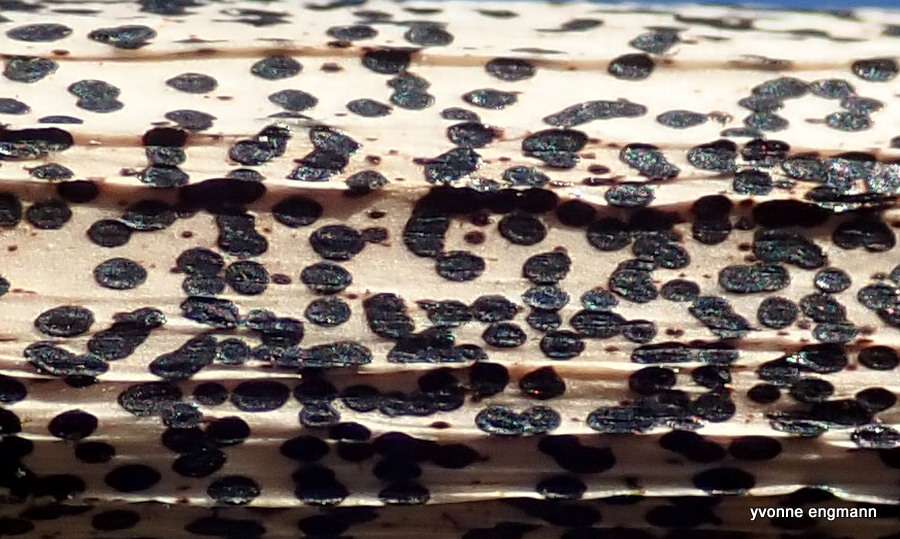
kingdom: Fungi
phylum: Ascomycota
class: Leotiomycetes
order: Rhytismatales
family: Rhytismataceae
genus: Lophodermium
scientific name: Lophodermium paeoniae
